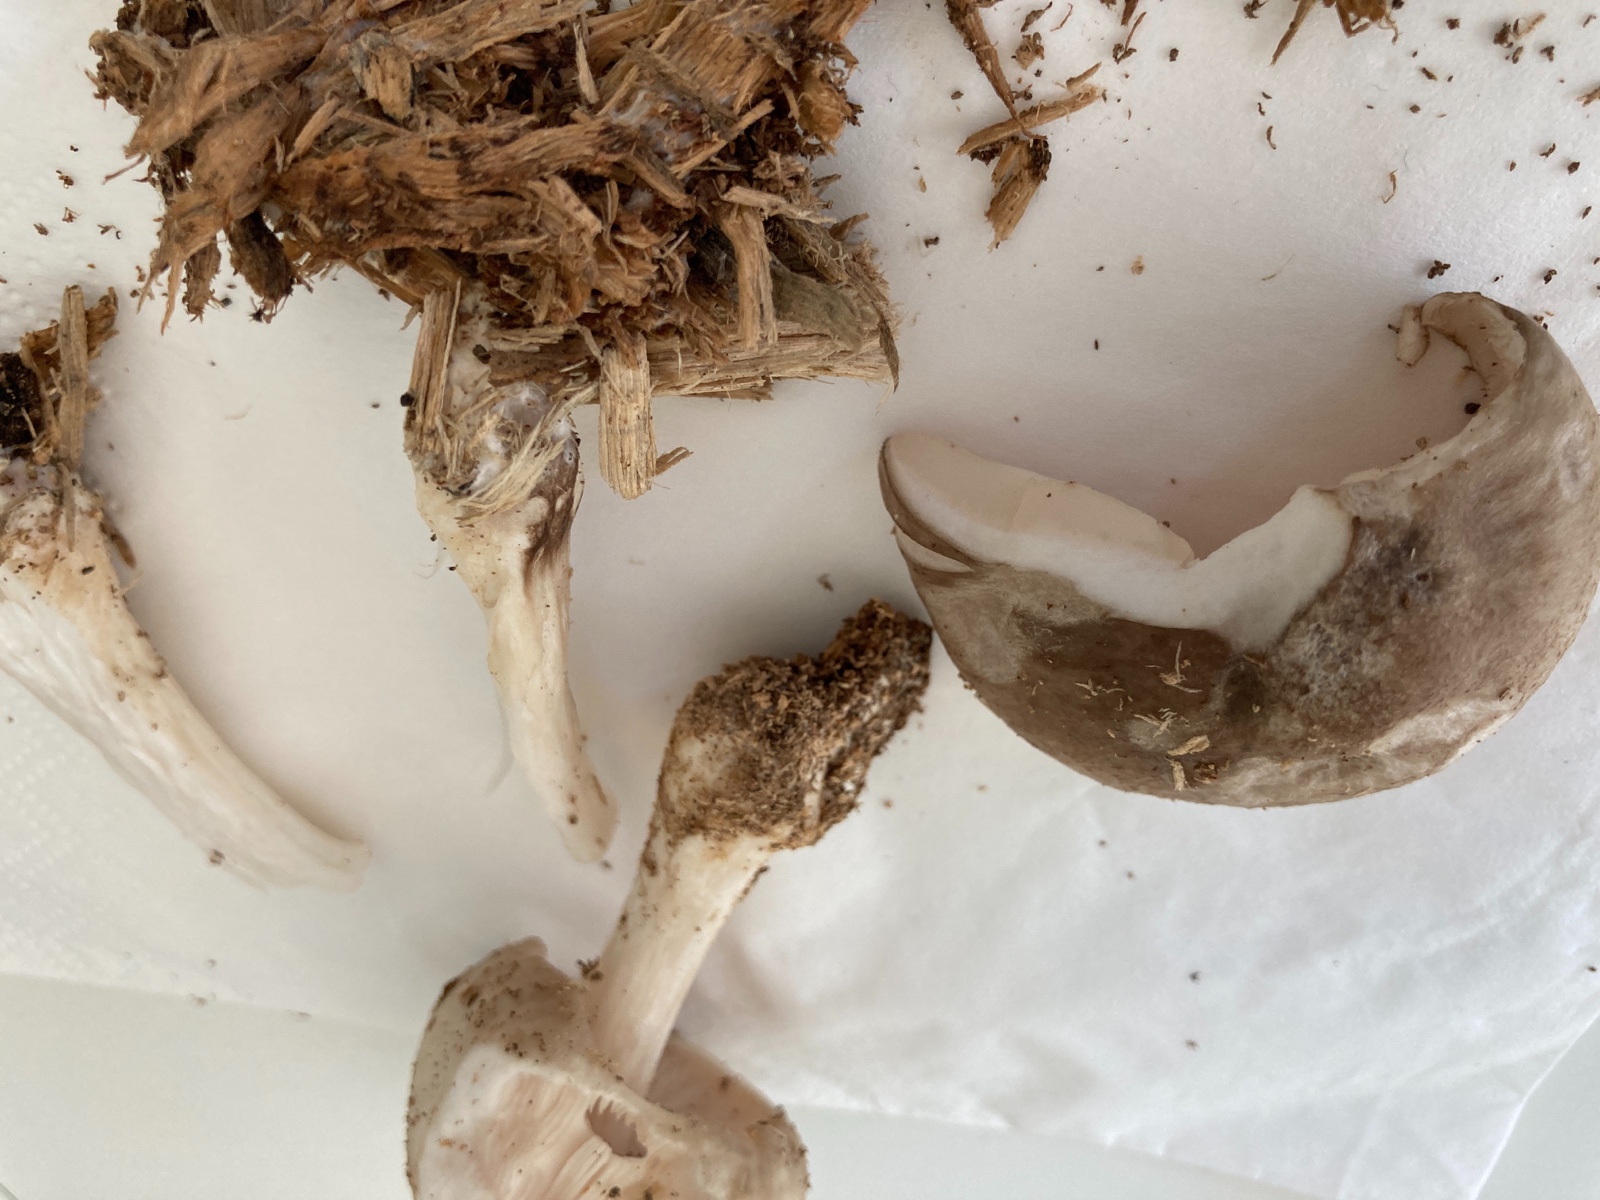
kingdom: Fungi
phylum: Basidiomycota
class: Agaricomycetes
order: Agaricales
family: Pluteaceae
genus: Pluteus
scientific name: Pluteus cervinus
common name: sodfarvet skærmhat
